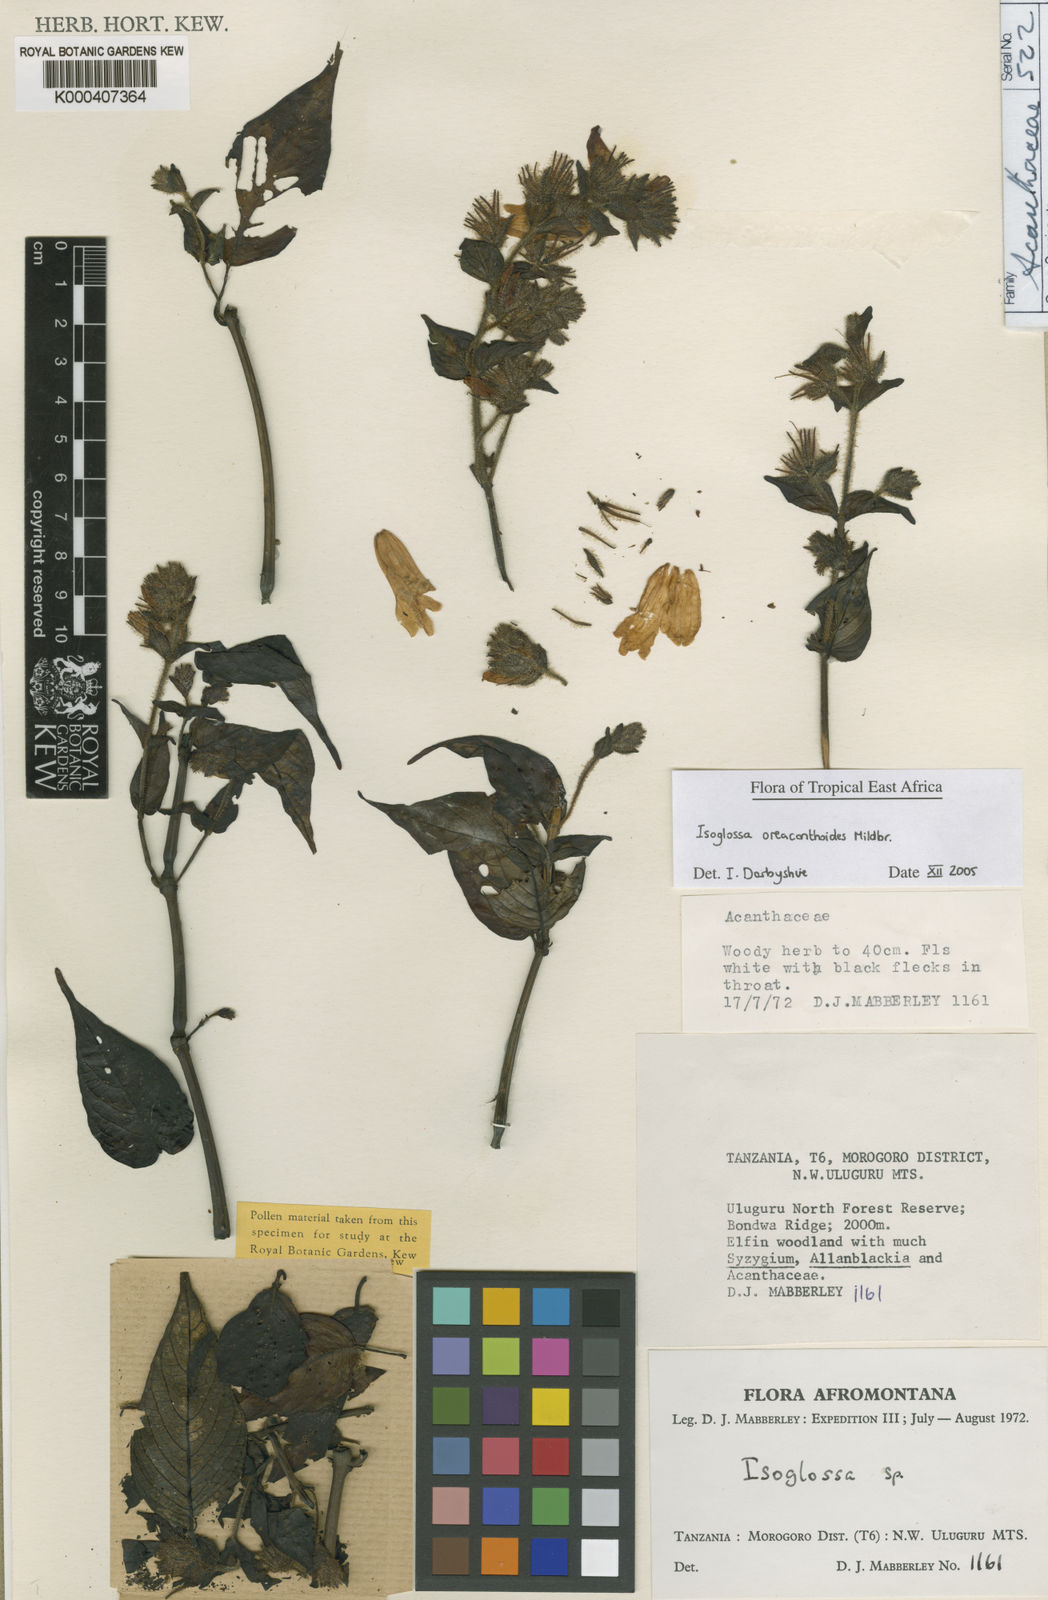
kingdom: Plantae
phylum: Tracheophyta
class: Magnoliopsida
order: Lamiales
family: Acanthaceae
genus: Isoglossa
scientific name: Isoglossa oreacanthoides
